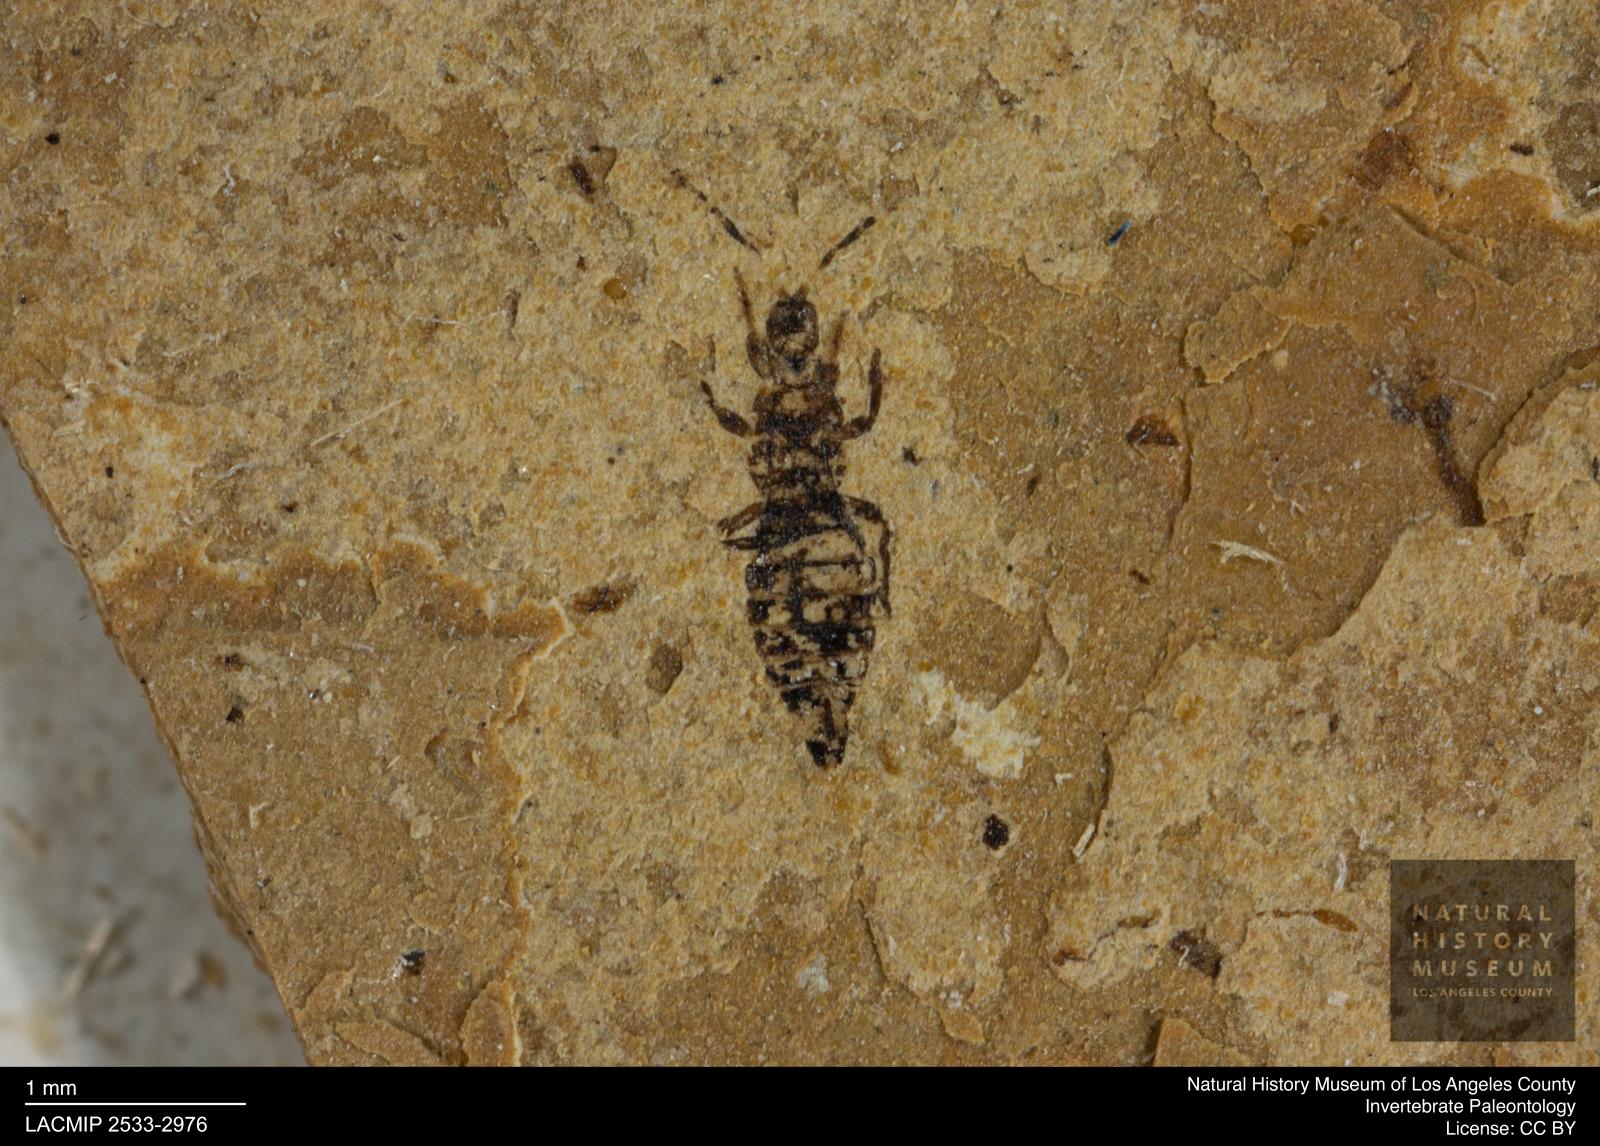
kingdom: Animalia
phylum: Arthropoda
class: Insecta
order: Thysanoptera
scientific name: Thysanoptera
